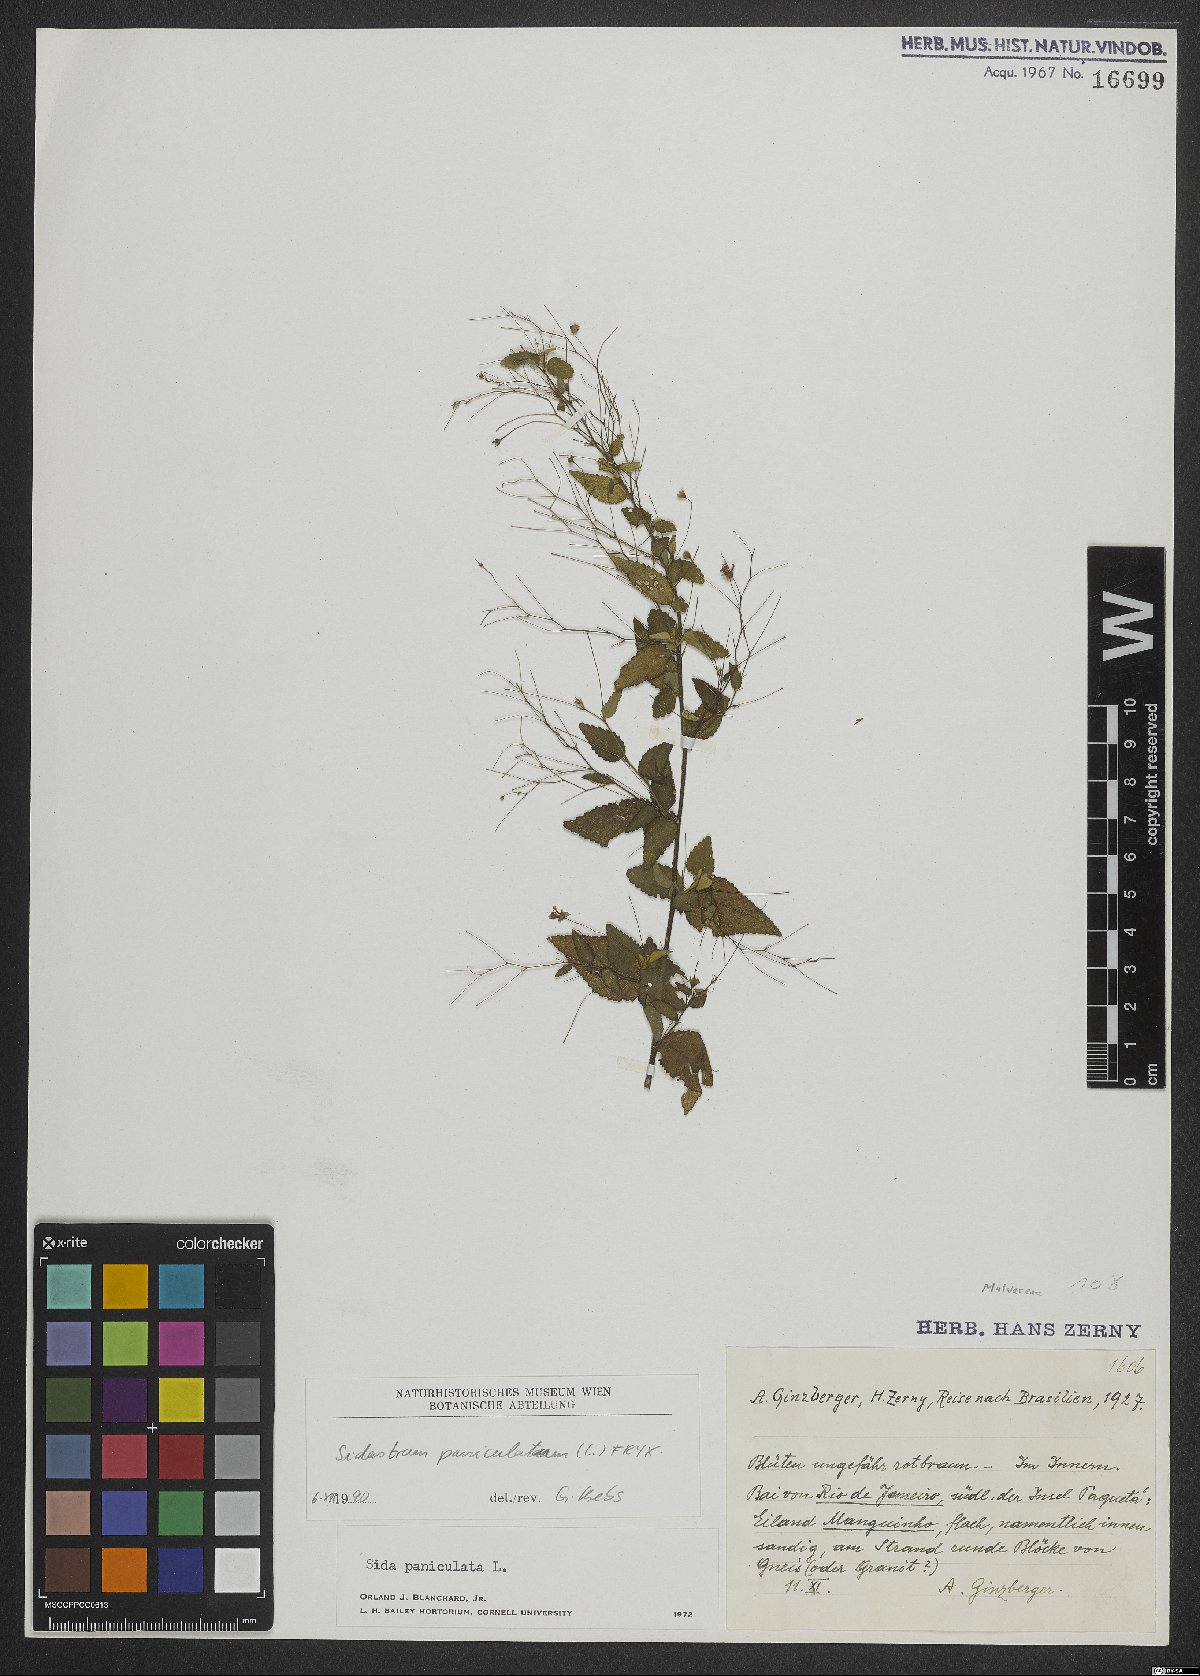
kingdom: Plantae
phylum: Tracheophyta
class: Magnoliopsida
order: Malvales
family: Malvaceae
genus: Sidastrum
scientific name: Sidastrum paniculatum
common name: Panicled sandmallow
